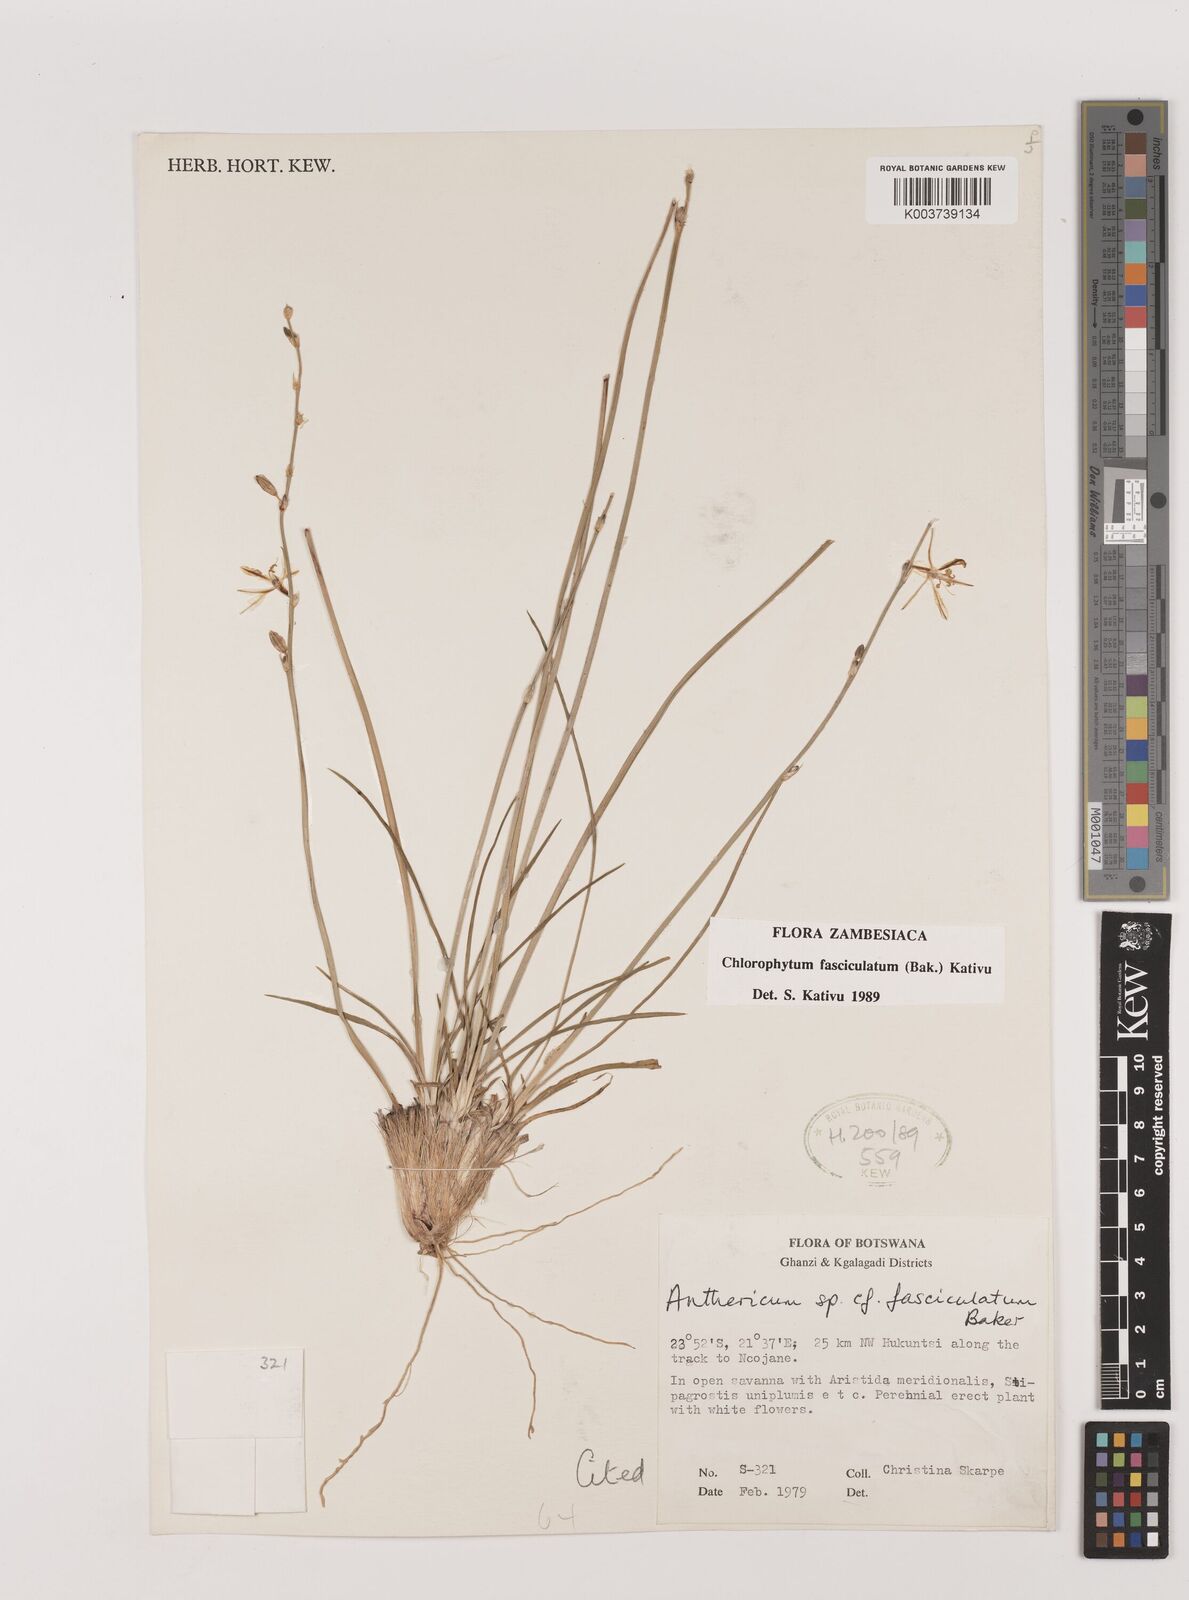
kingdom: Plantae
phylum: Tracheophyta
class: Liliopsida
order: Asparagales
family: Asparagaceae
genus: Chlorophytum
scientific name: Chlorophytum fasciculatum
